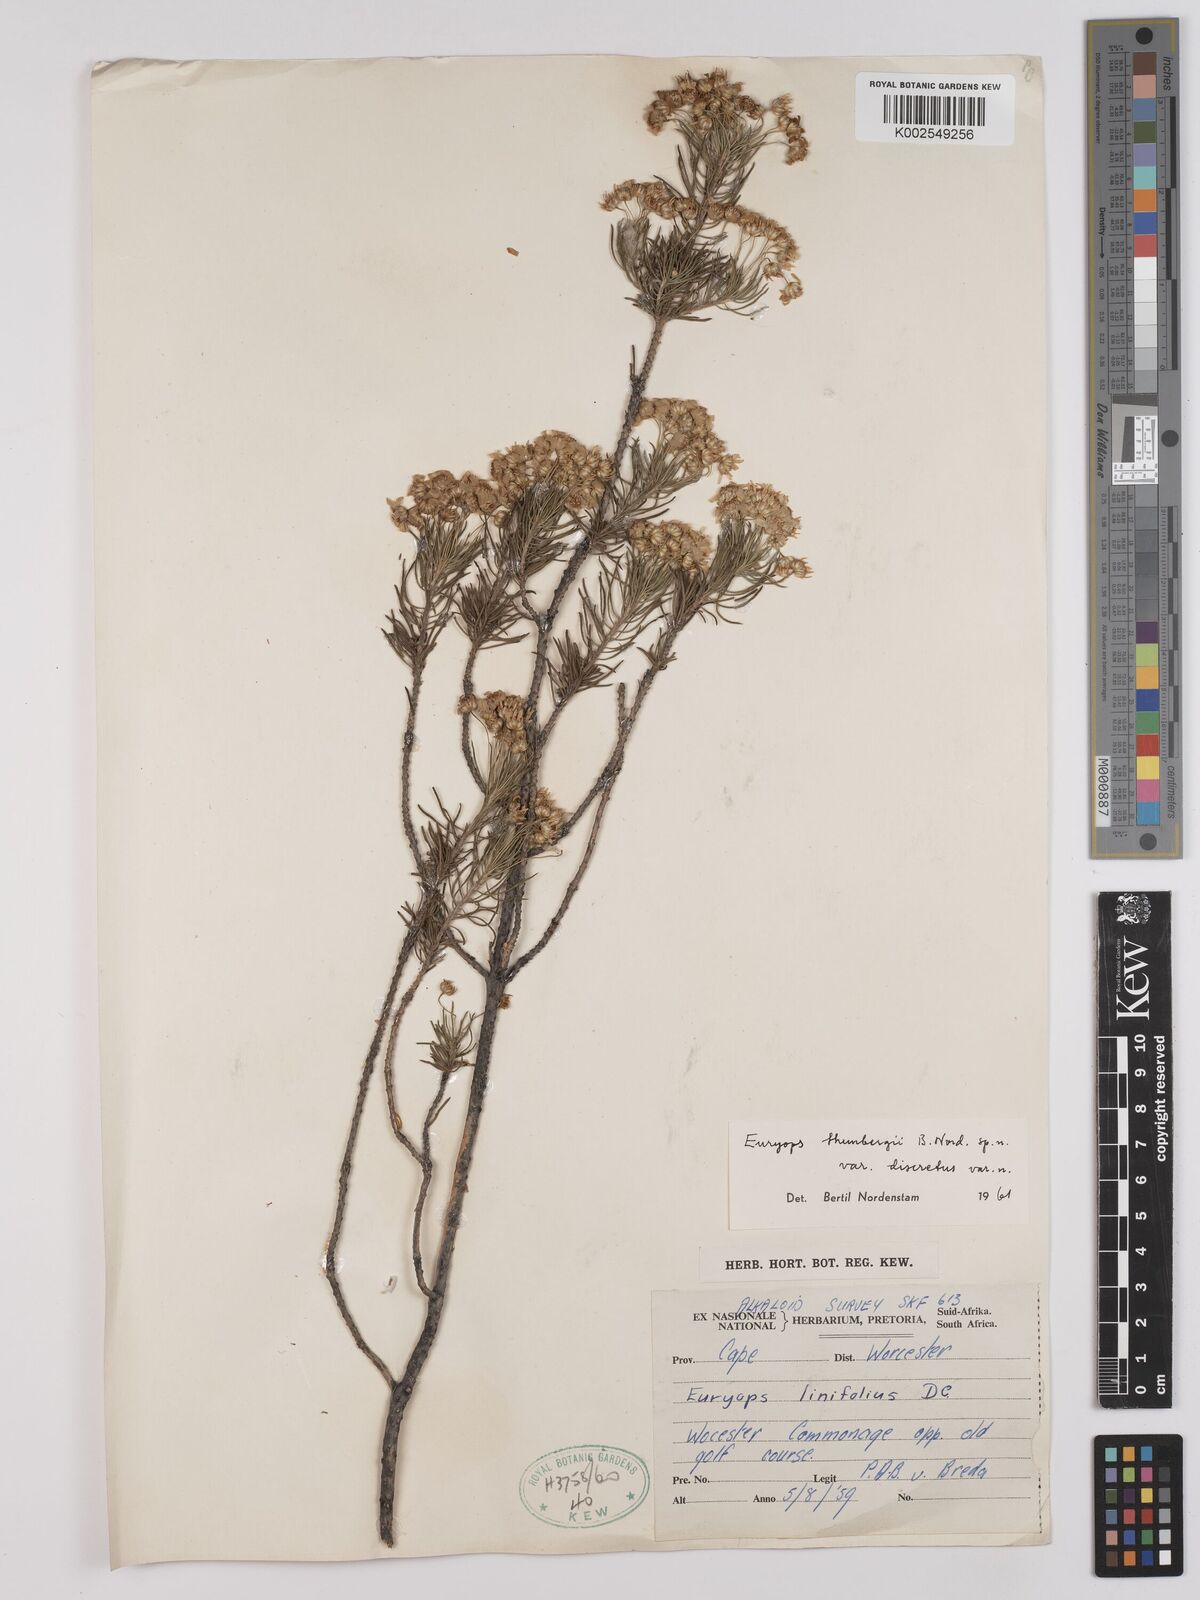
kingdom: Plantae
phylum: Tracheophyta
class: Magnoliopsida
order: Asterales
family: Asteraceae
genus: Euryops
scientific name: Euryops thunbergii
